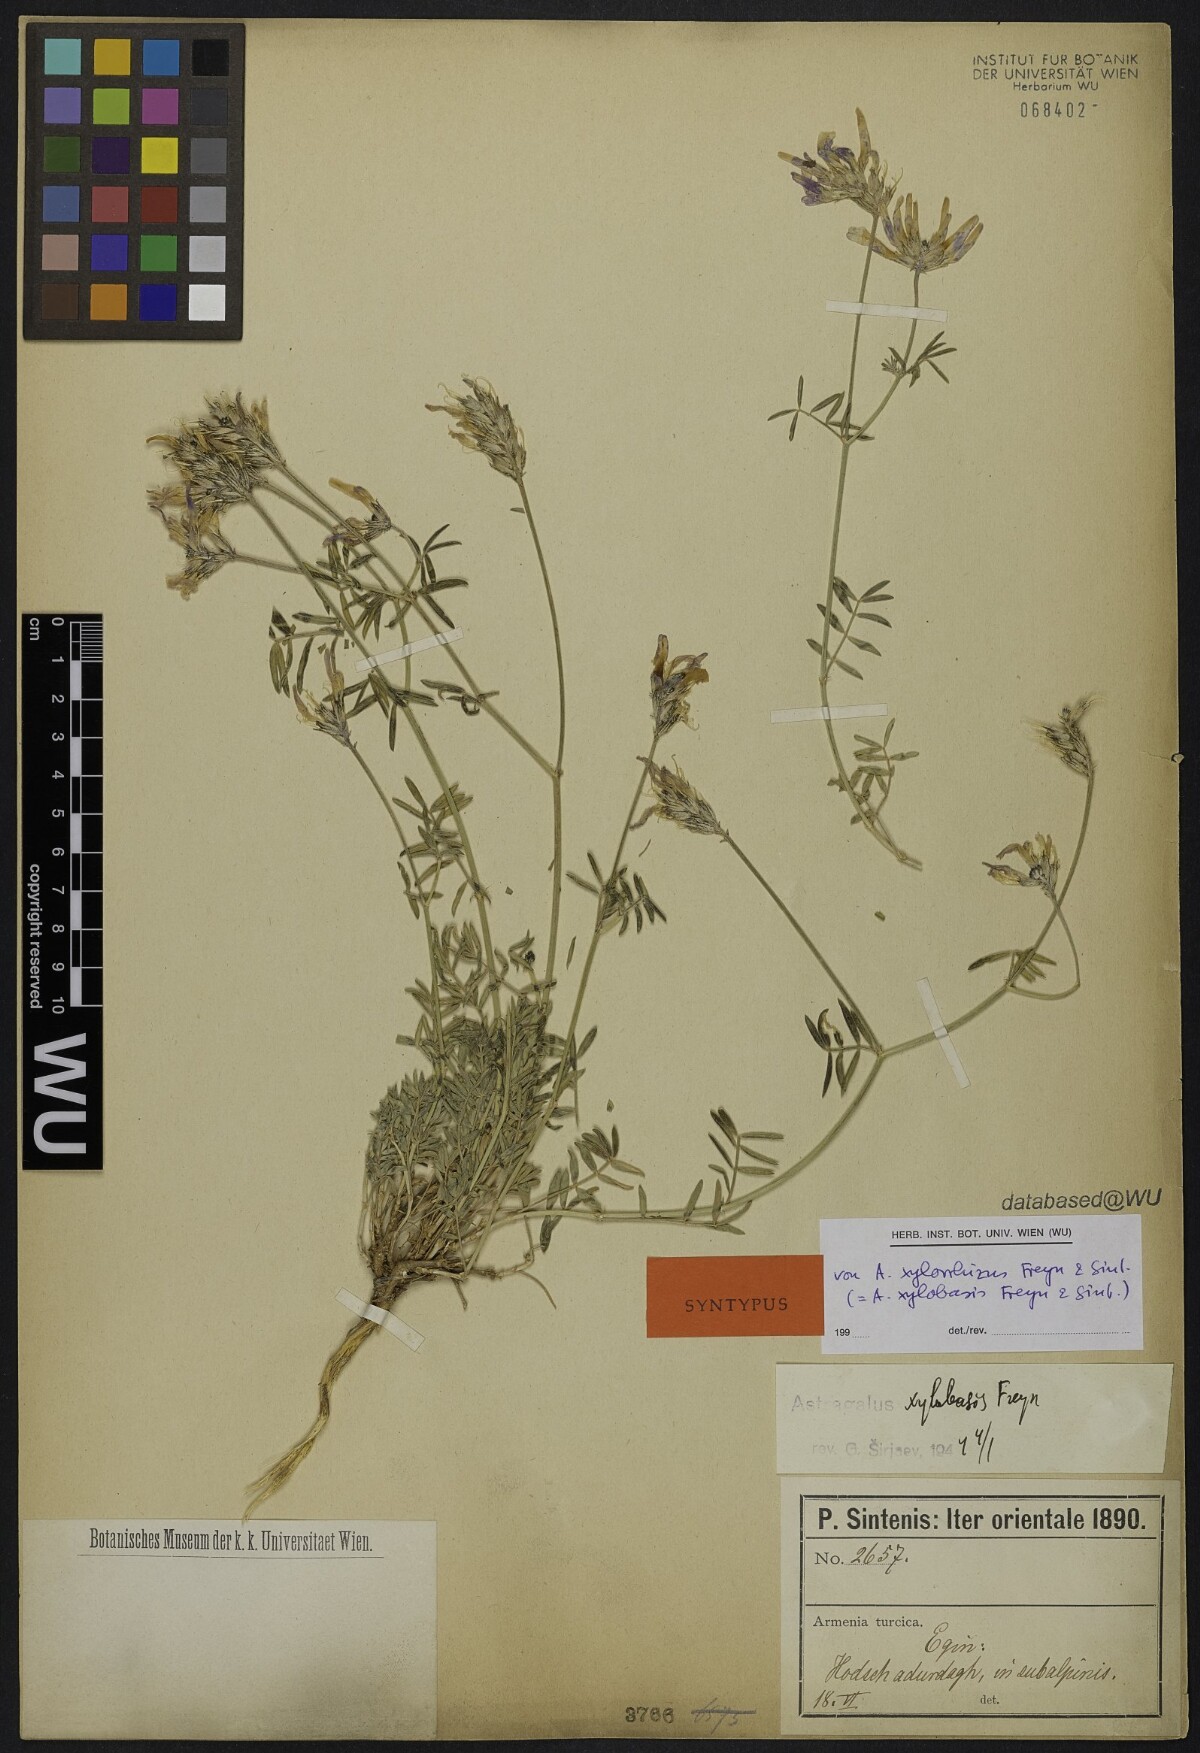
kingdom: Plantae
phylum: Tracheophyta
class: Magnoliopsida
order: Fabales
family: Fabaceae
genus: Astragalus
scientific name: Astragalus aduncus
